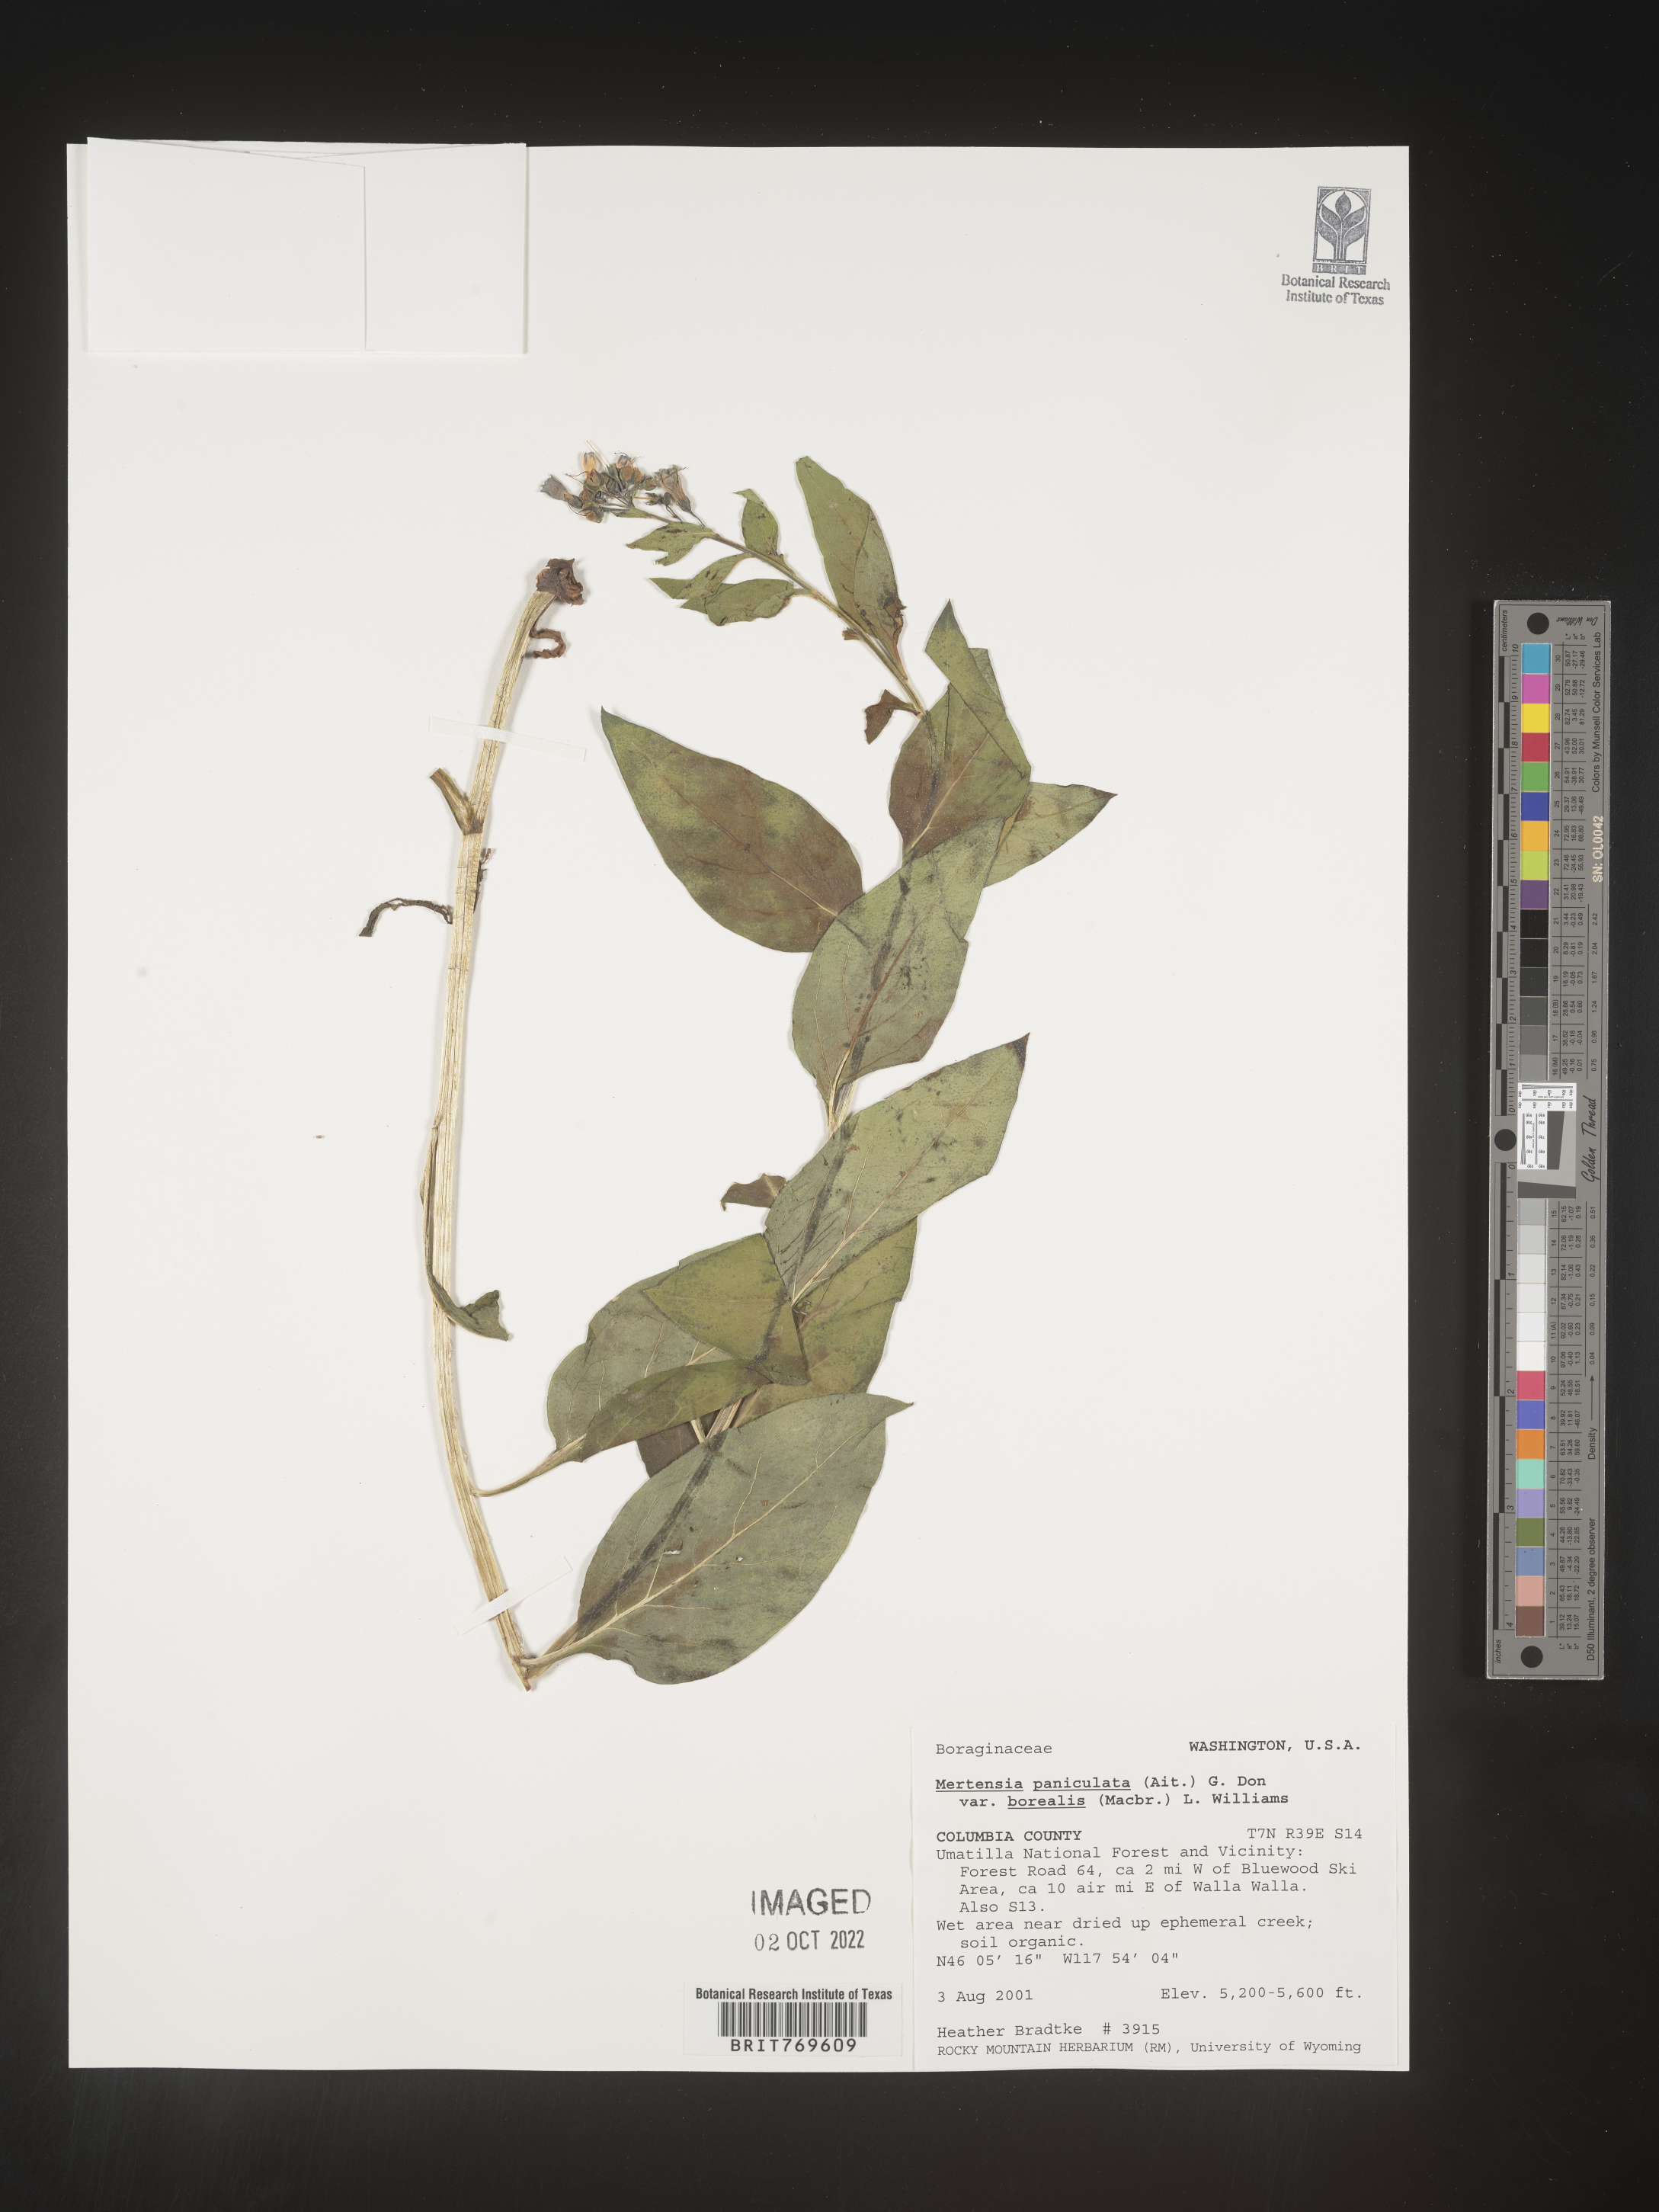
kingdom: Plantae
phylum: Tracheophyta
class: Magnoliopsida
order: Boraginales
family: Boraginaceae
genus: Mertensia
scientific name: Mertensia
